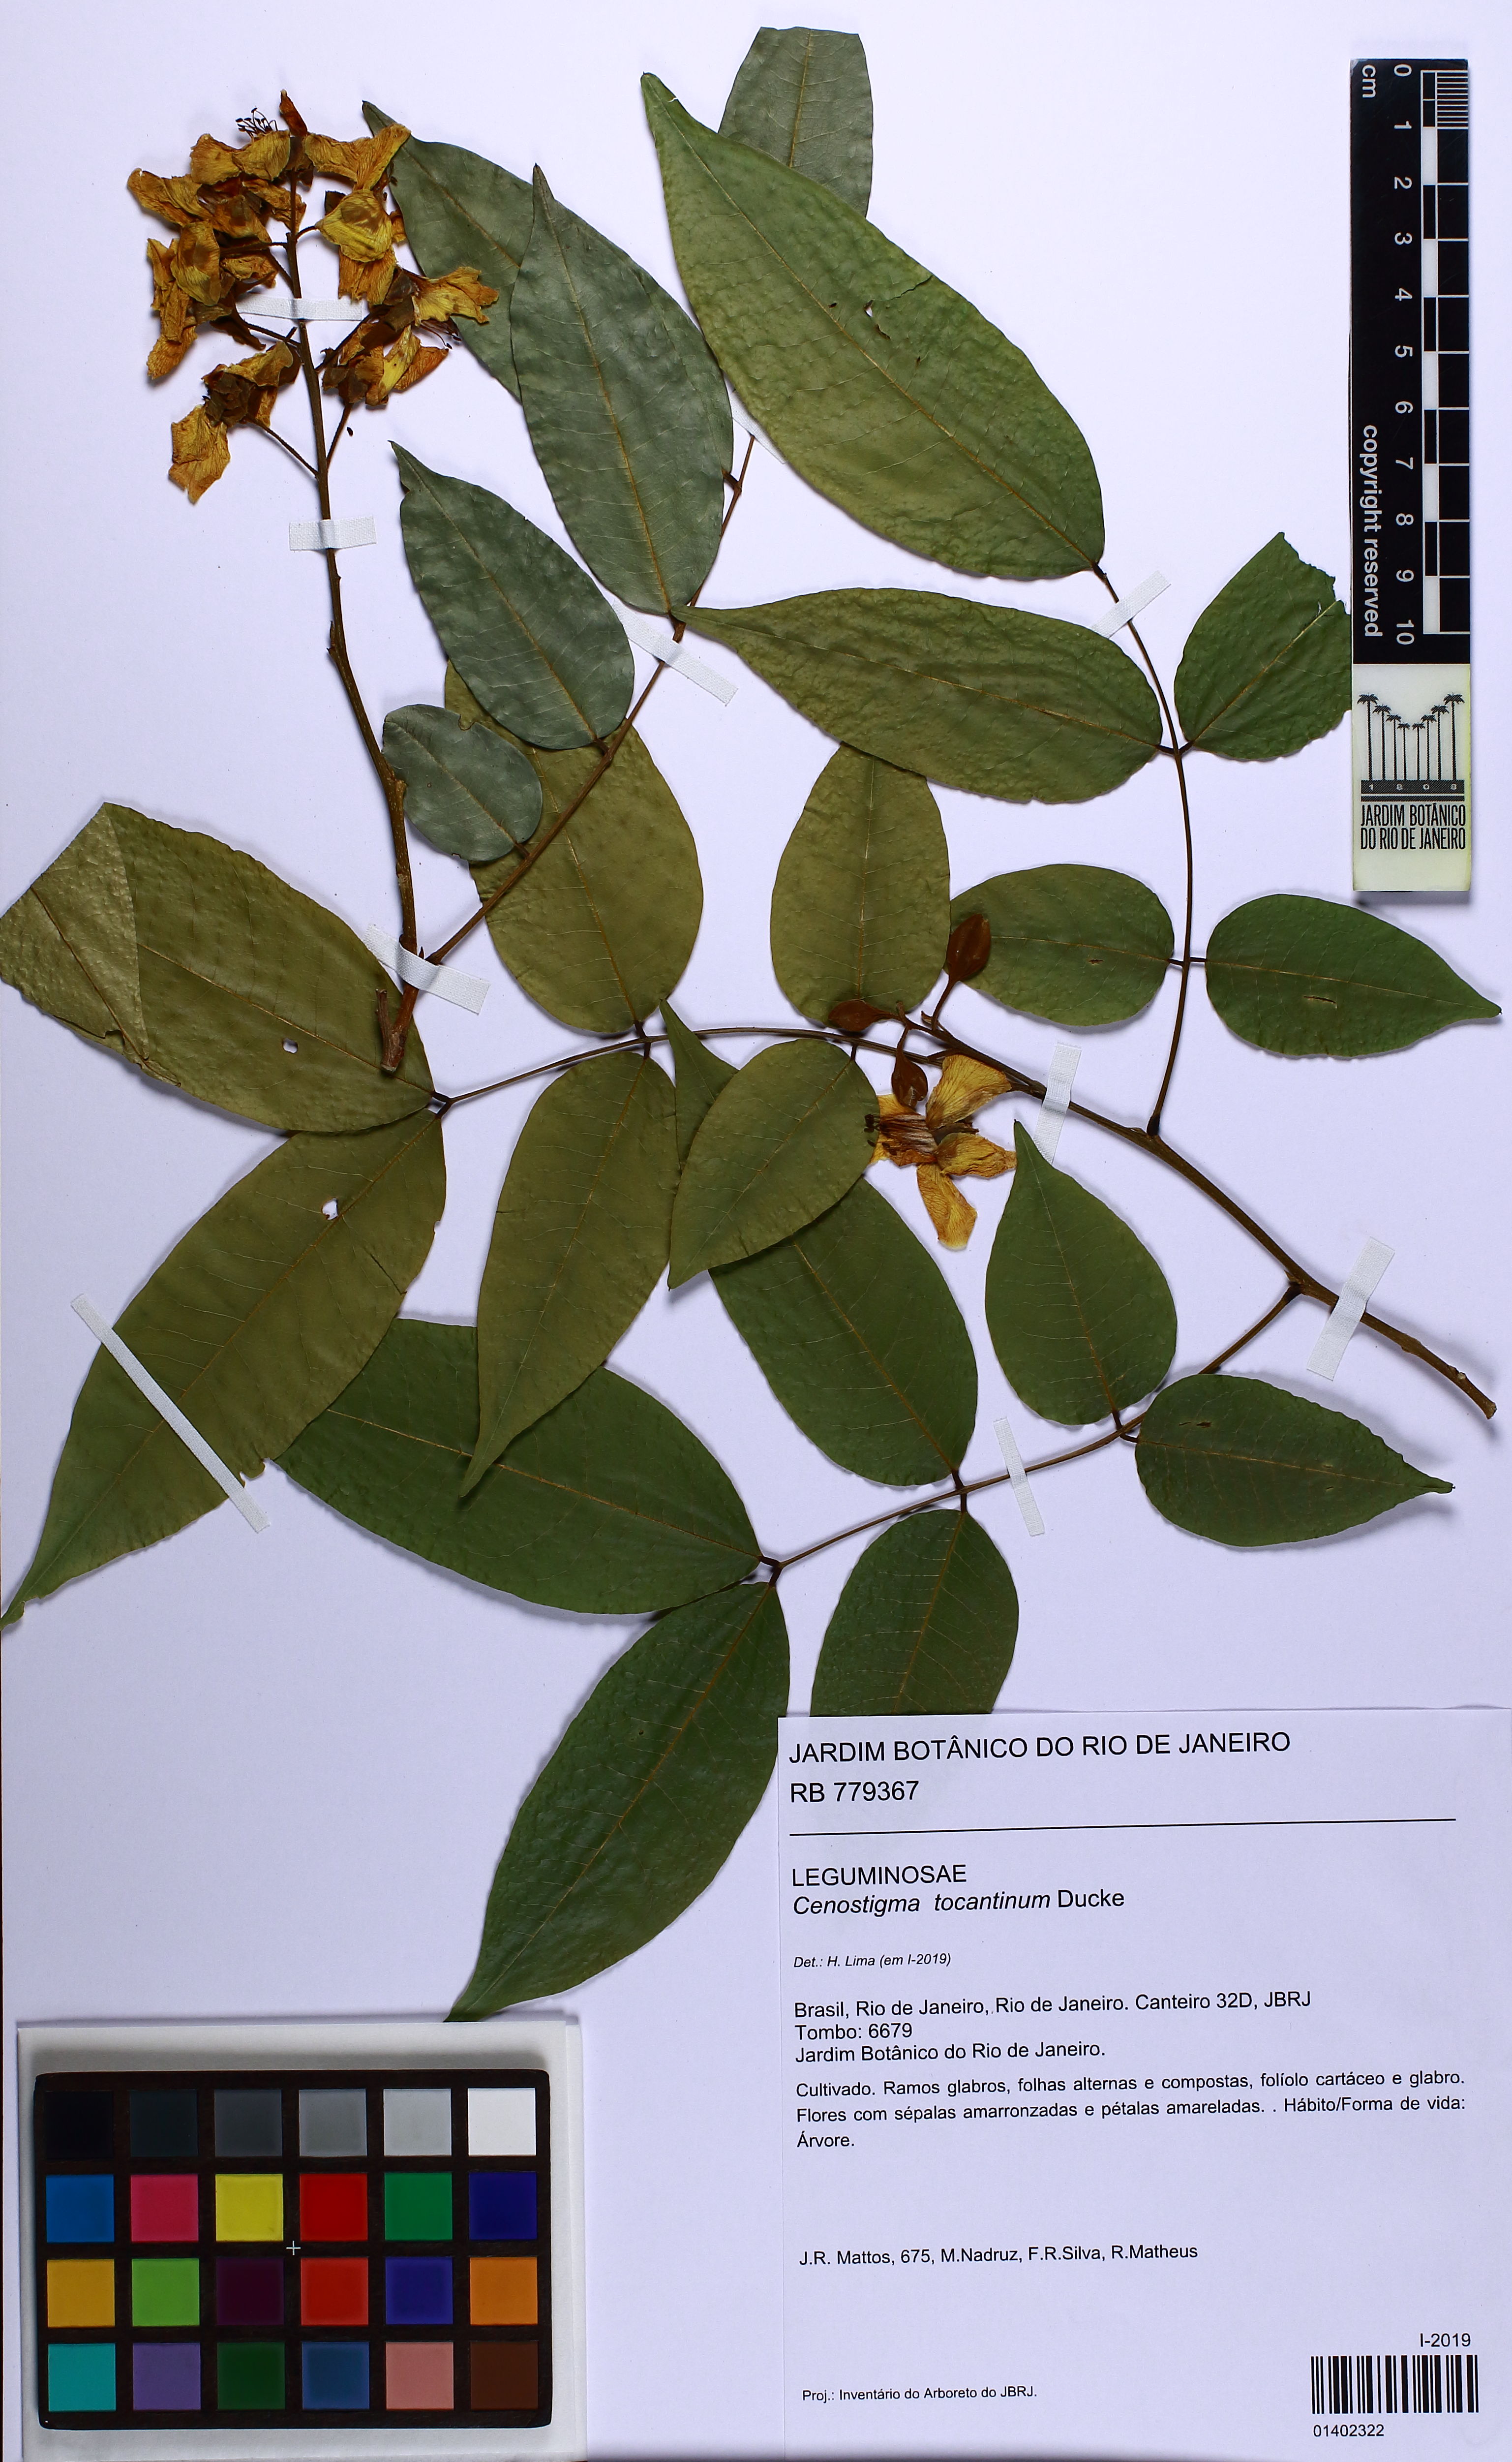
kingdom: Plantae
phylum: Tracheophyta
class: Magnoliopsida
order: Fabales
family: Fabaceae
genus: Cenostigma
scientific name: Cenostigma tocantinum
